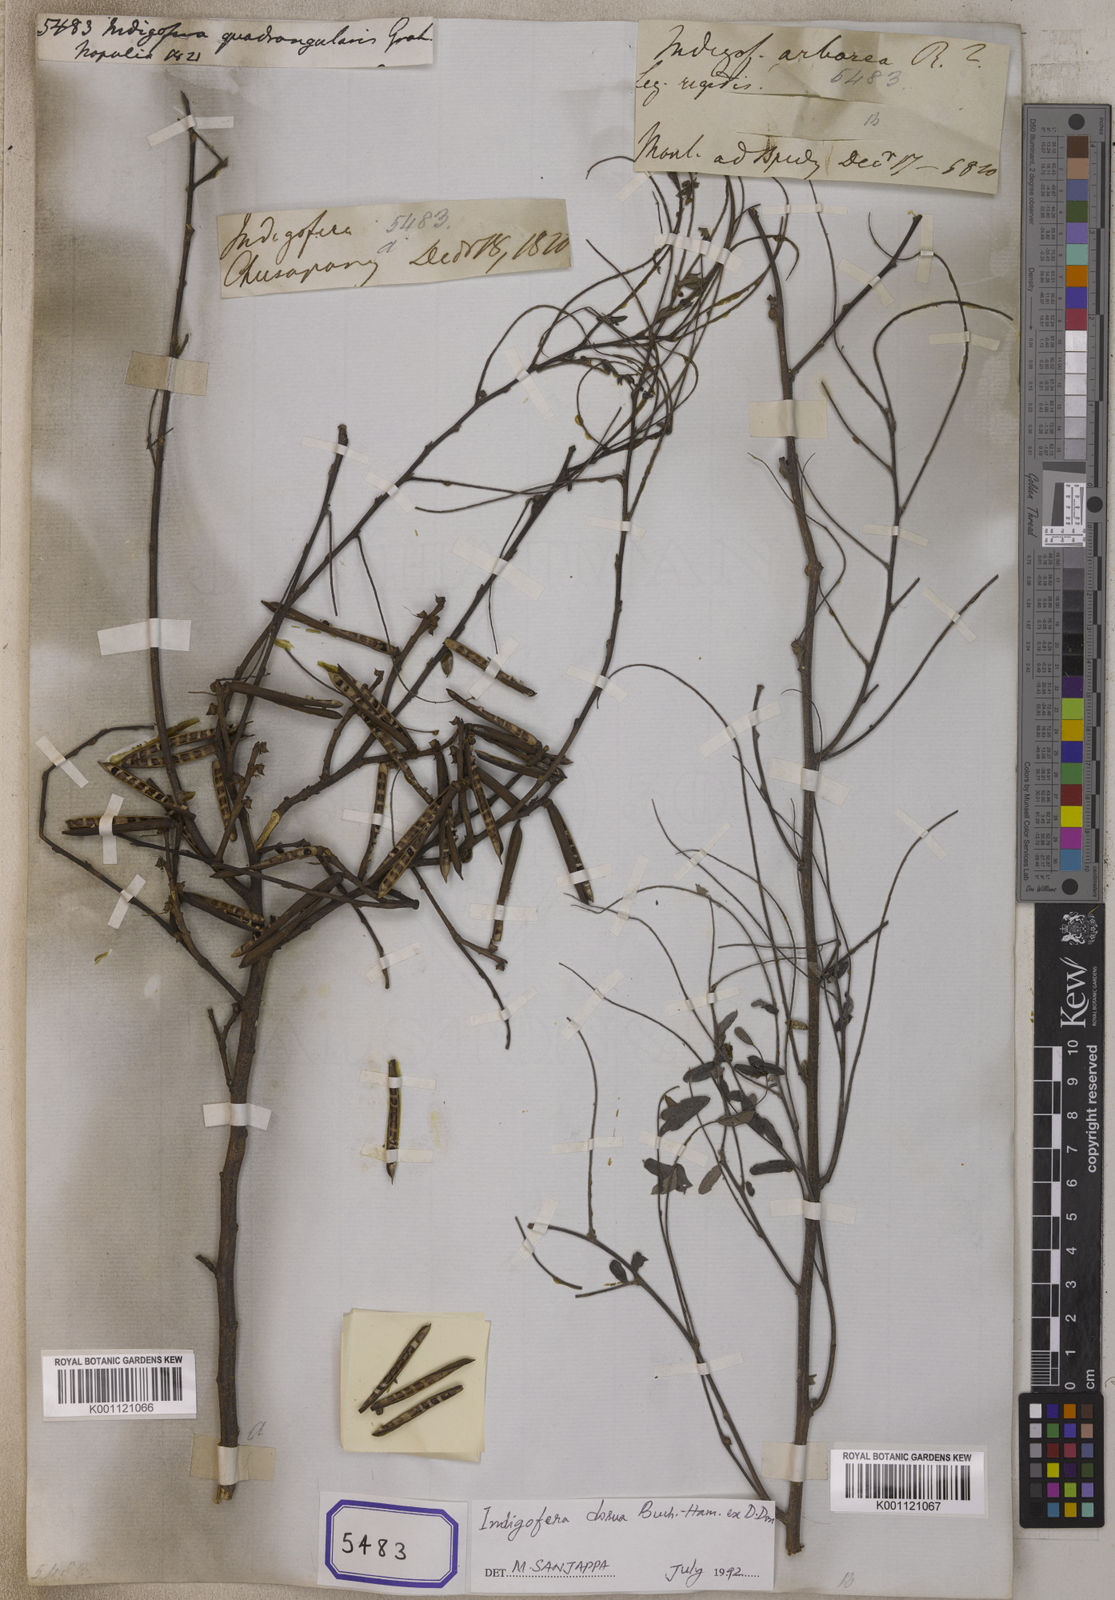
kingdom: Plantae
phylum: Tracheophyta
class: Magnoliopsida
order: Fabales
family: Fabaceae
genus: Indigofera
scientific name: Indigofera heterantha
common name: Himalayan indigo
